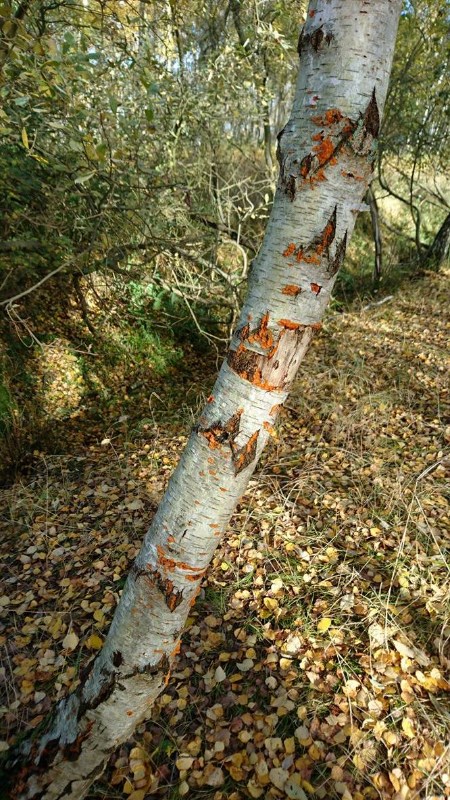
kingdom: Fungi
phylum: Basidiomycota
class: Agaricomycetes
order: Polyporales
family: Meruliaceae
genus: Phlebia
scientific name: Phlebia radiata
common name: stråle-åresvamp
